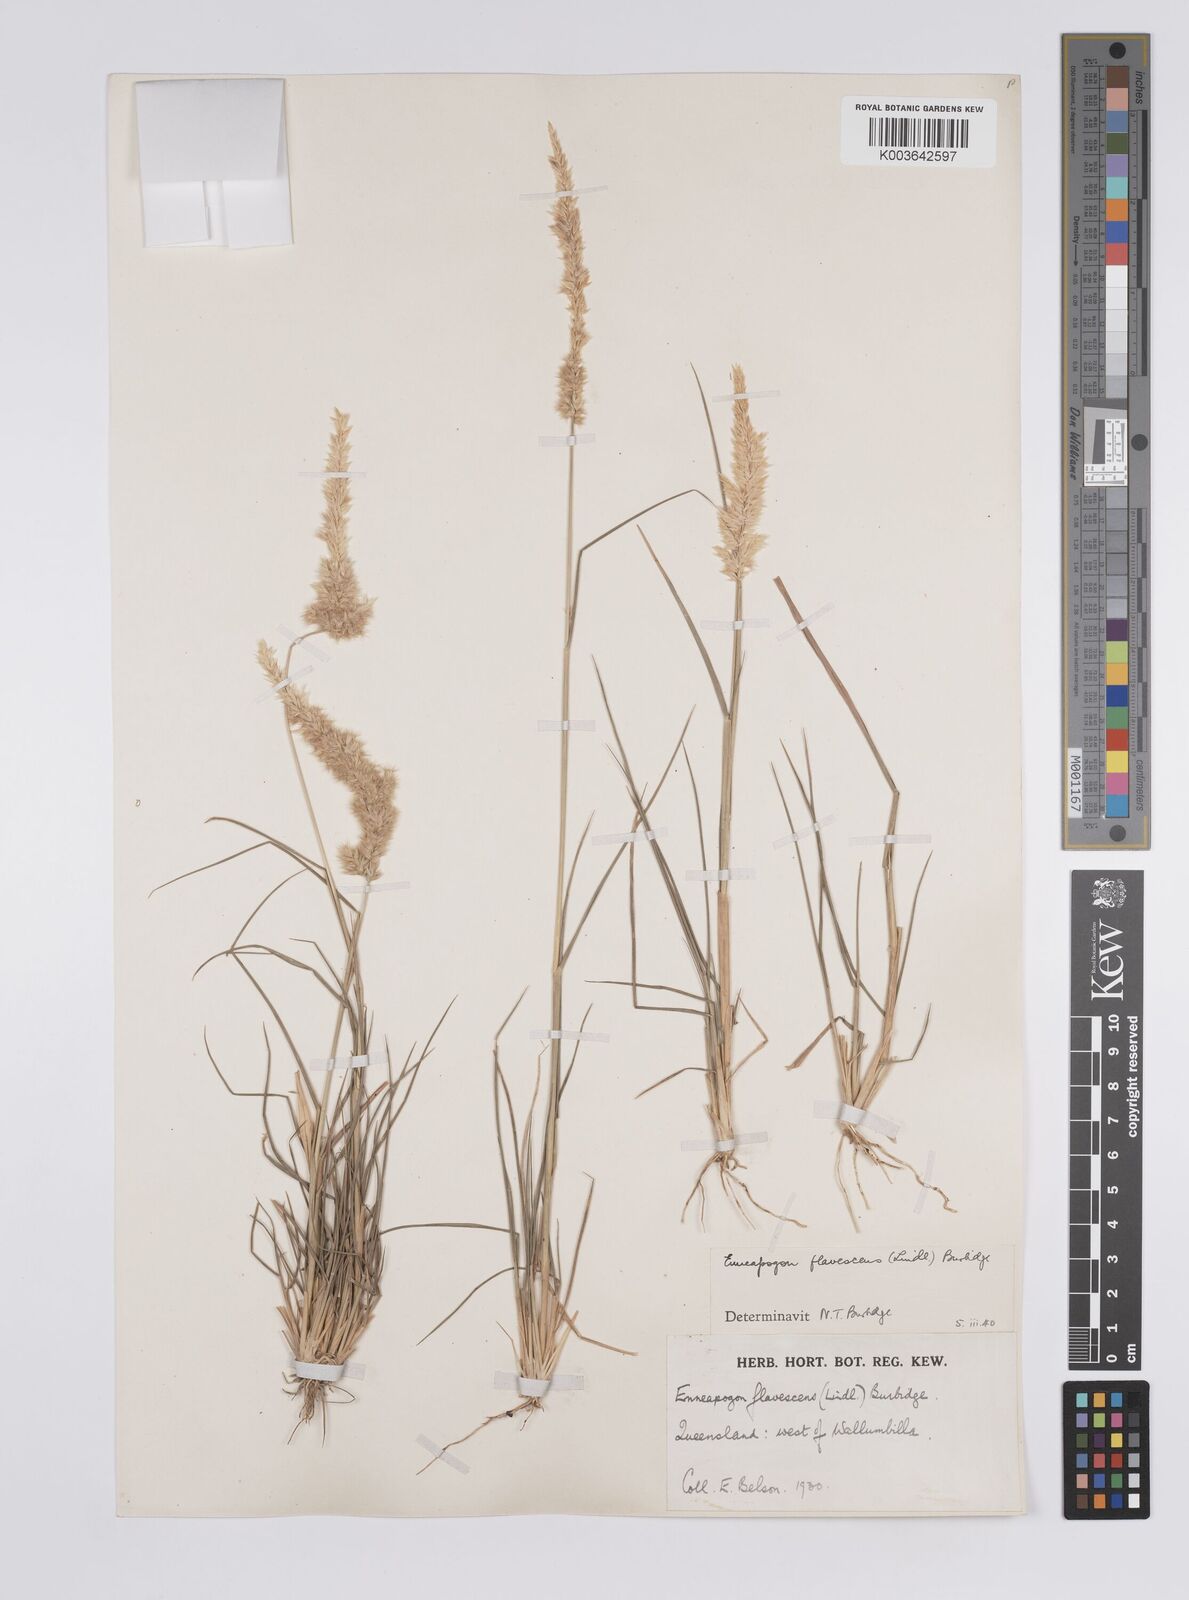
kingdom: Plantae
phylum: Tracheophyta
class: Liliopsida
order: Poales
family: Poaceae
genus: Enneapogon
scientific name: Enneapogon truncatus
